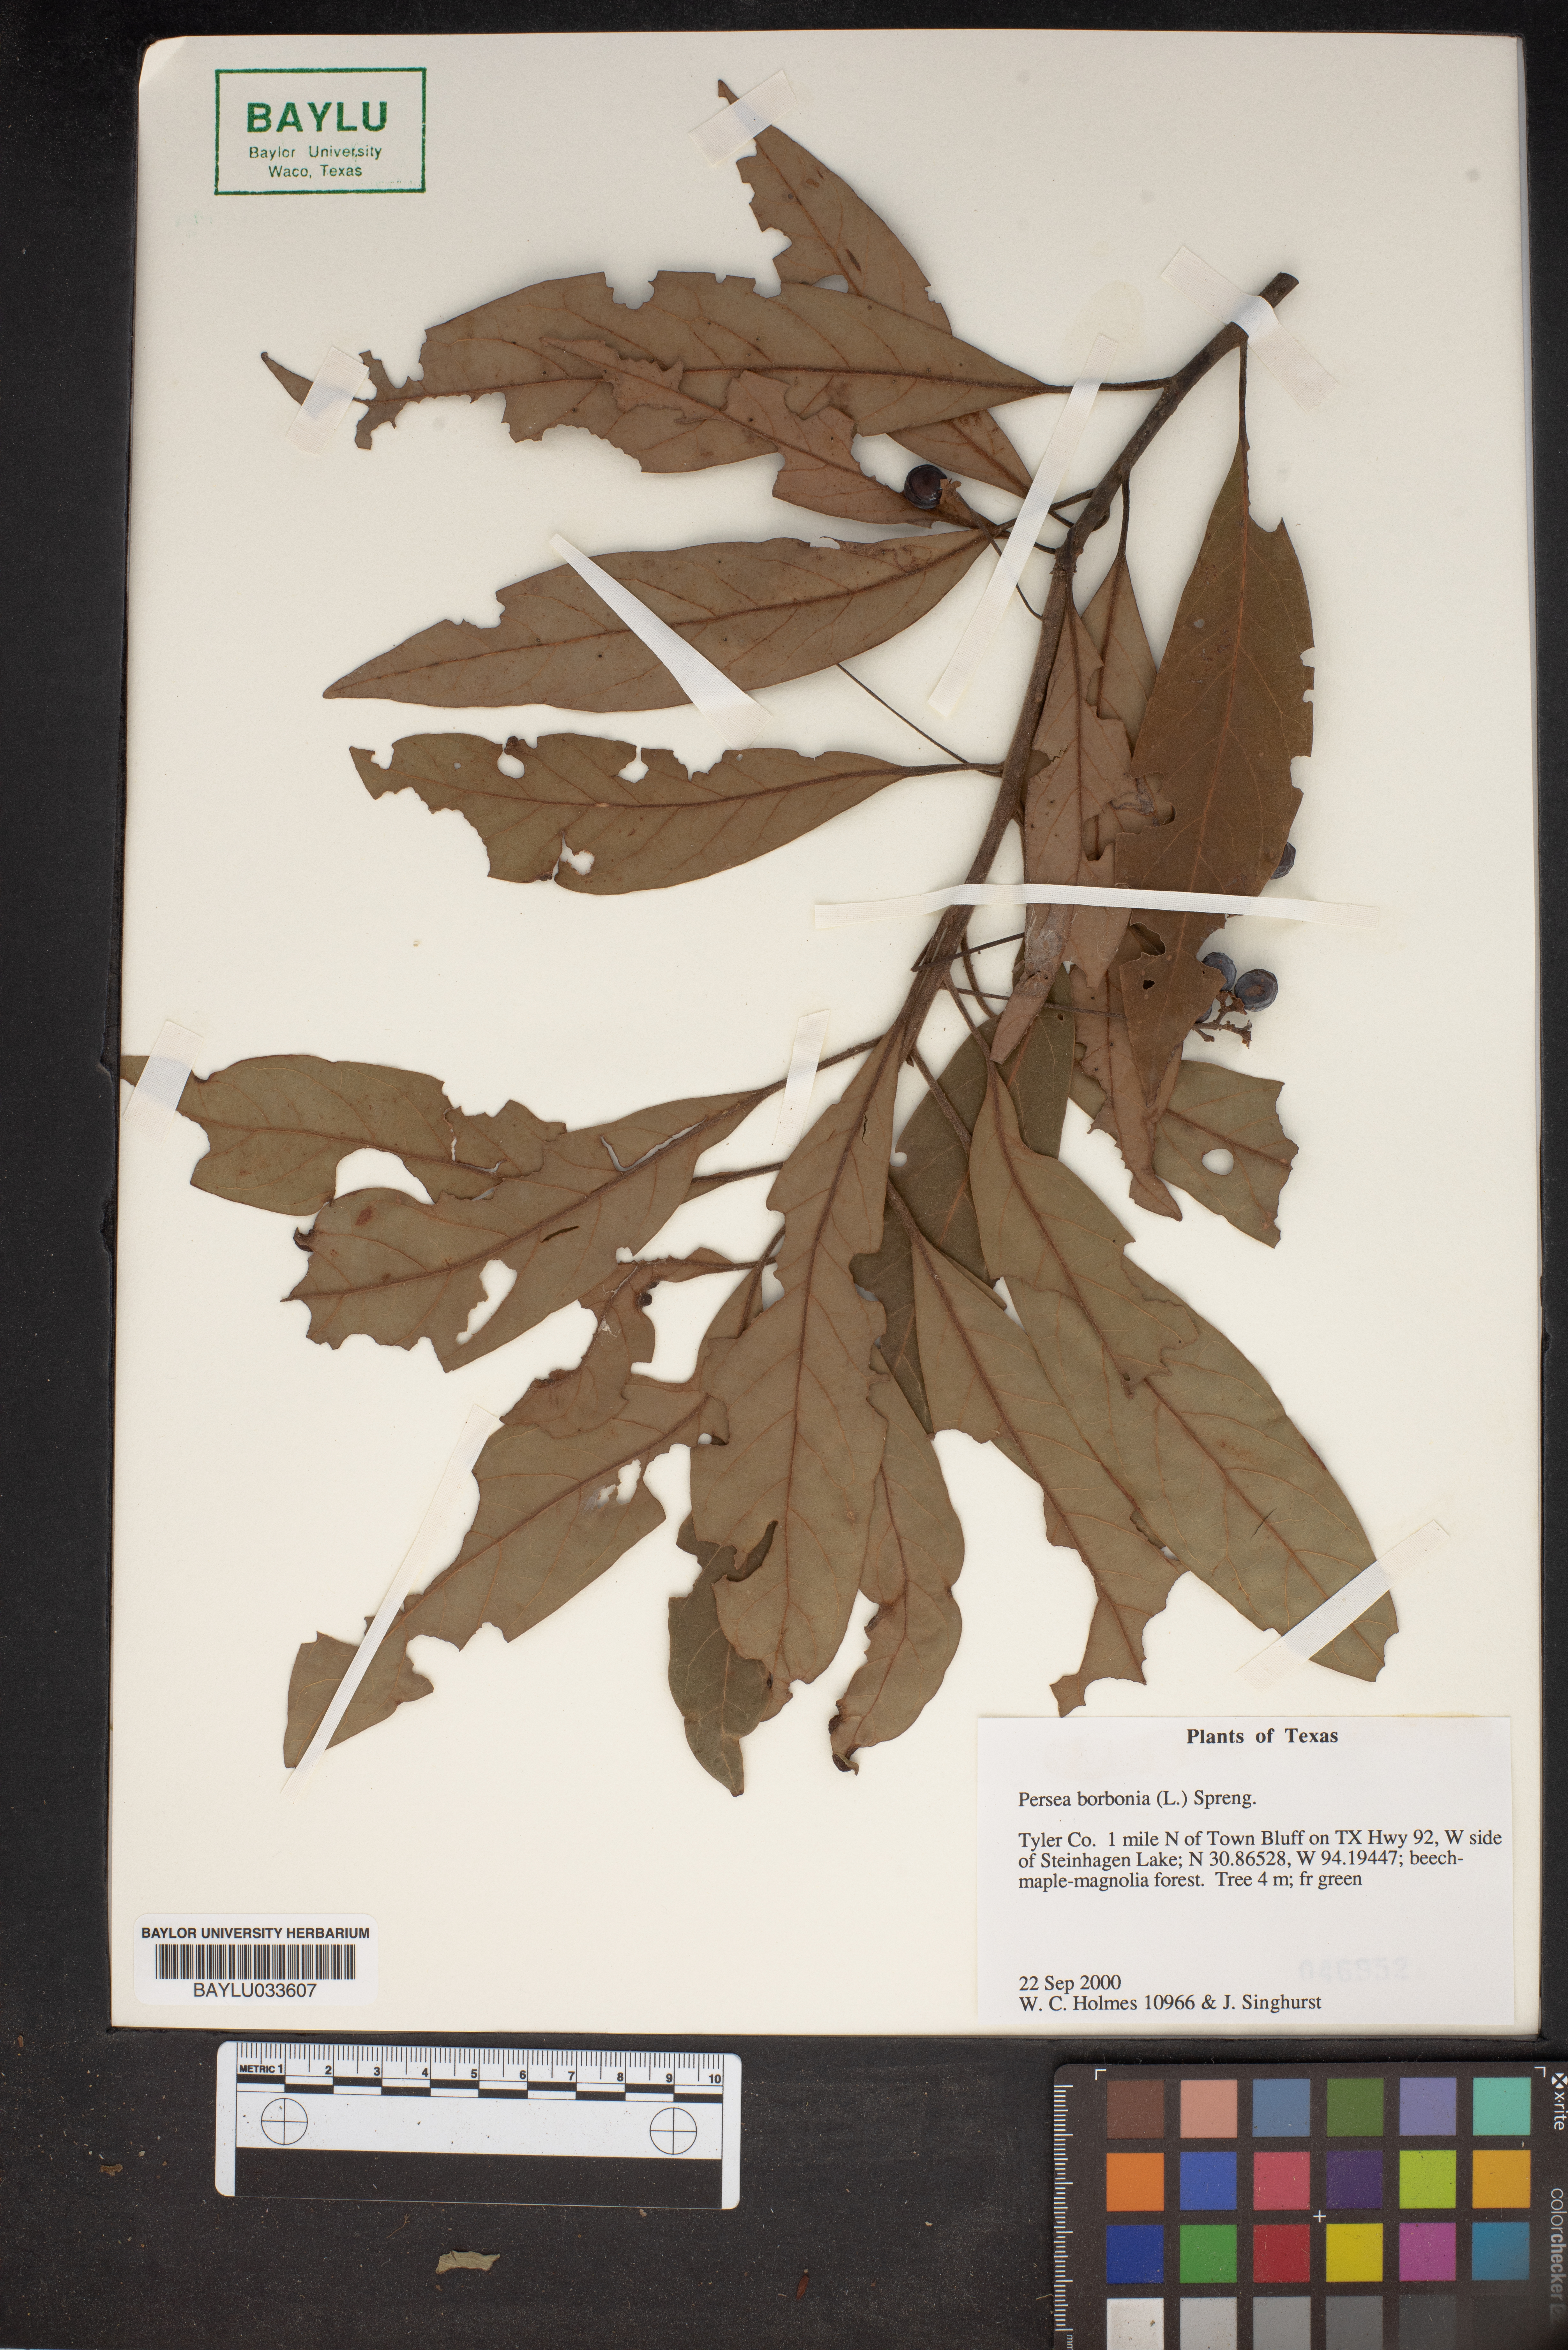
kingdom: Plantae
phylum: Tracheophyta
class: Magnoliopsida
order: Laurales
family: Lauraceae
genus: Persea
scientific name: Persea borbonia
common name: Redbay
